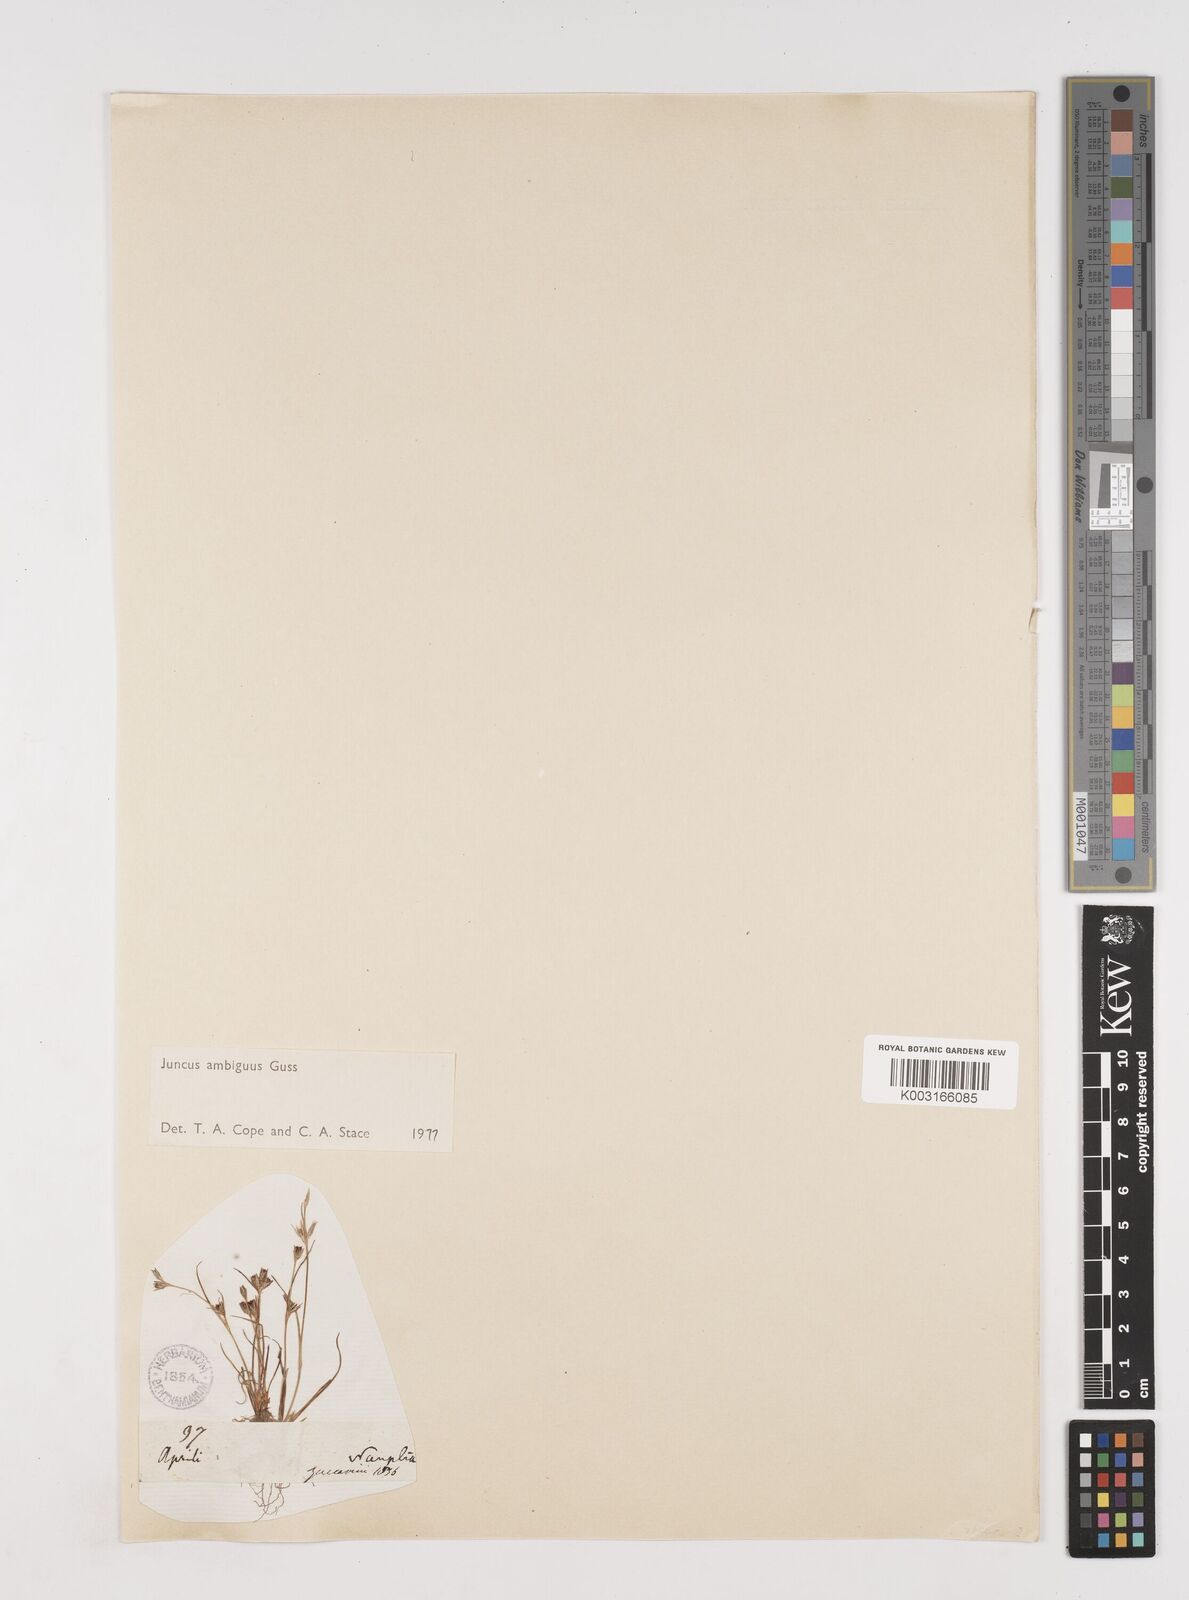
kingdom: Plantae
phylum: Tracheophyta
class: Liliopsida
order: Poales
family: Juncaceae
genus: Juncus
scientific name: Juncus hybridus
